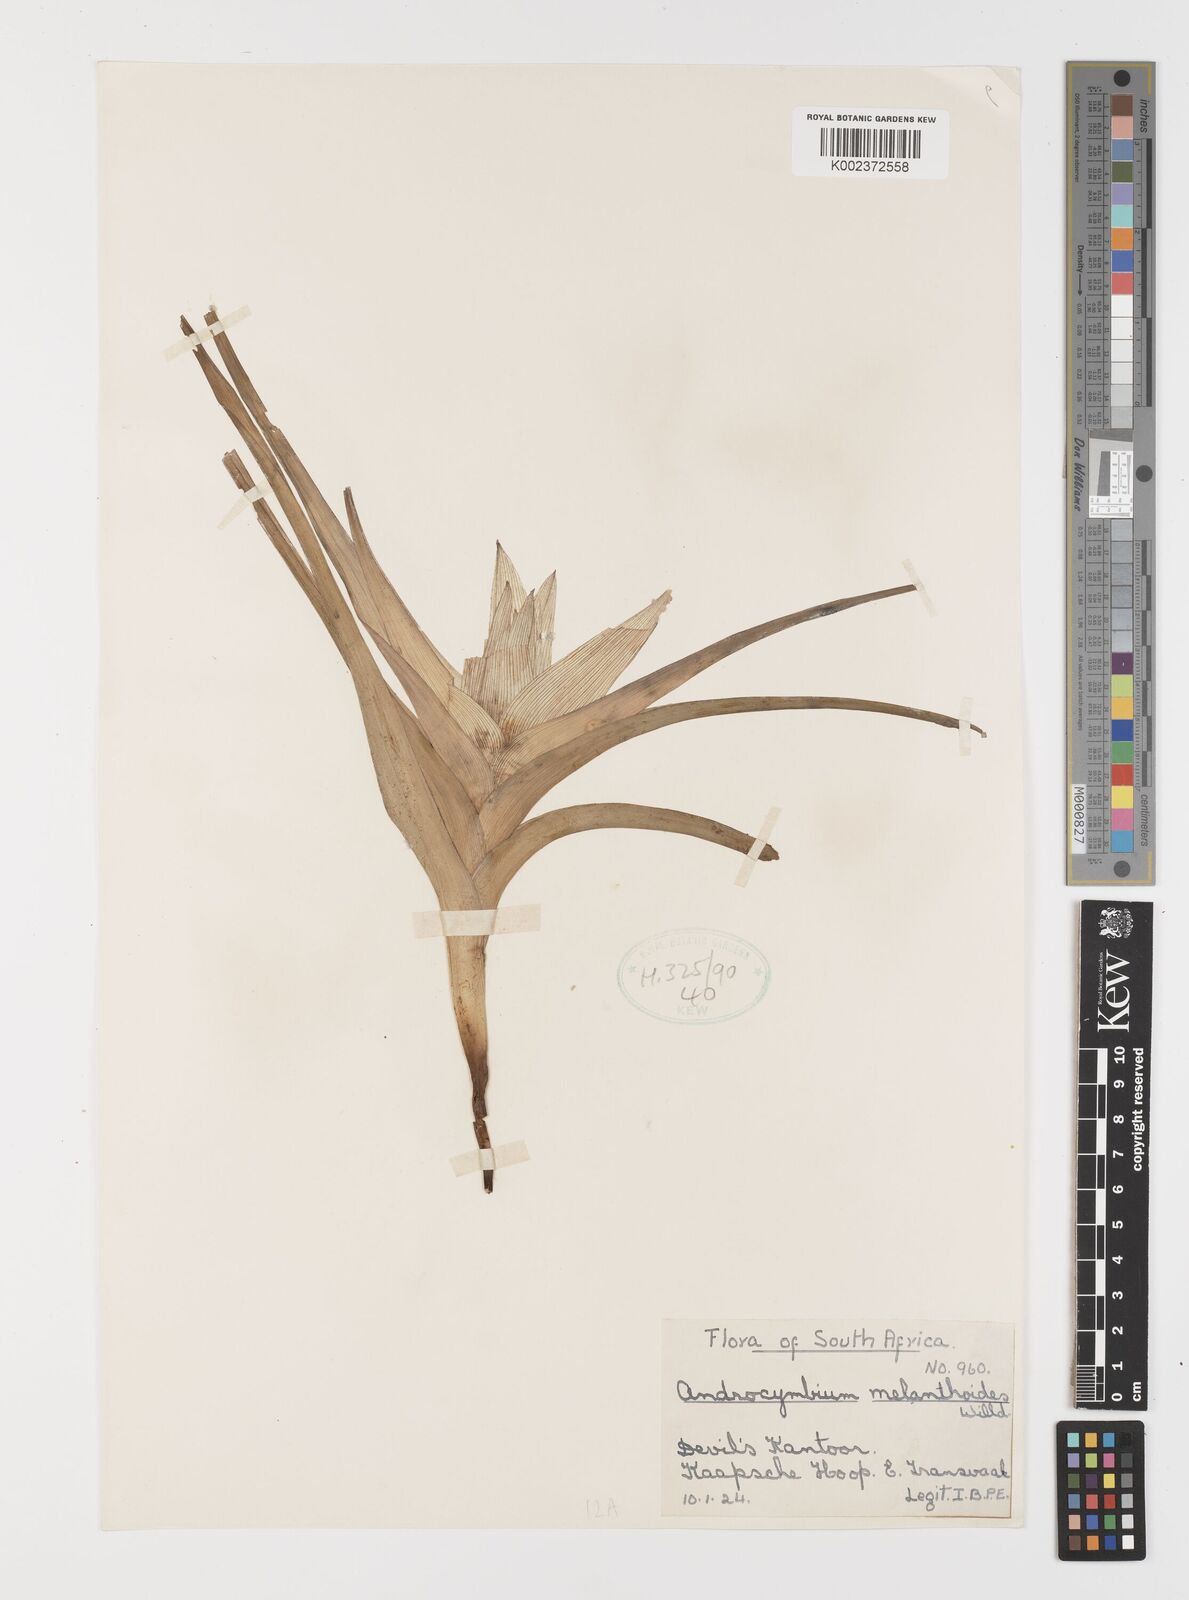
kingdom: Plantae
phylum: Tracheophyta
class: Liliopsida
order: Liliales
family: Colchicaceae
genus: Colchicum
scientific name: Colchicum melanthioides
